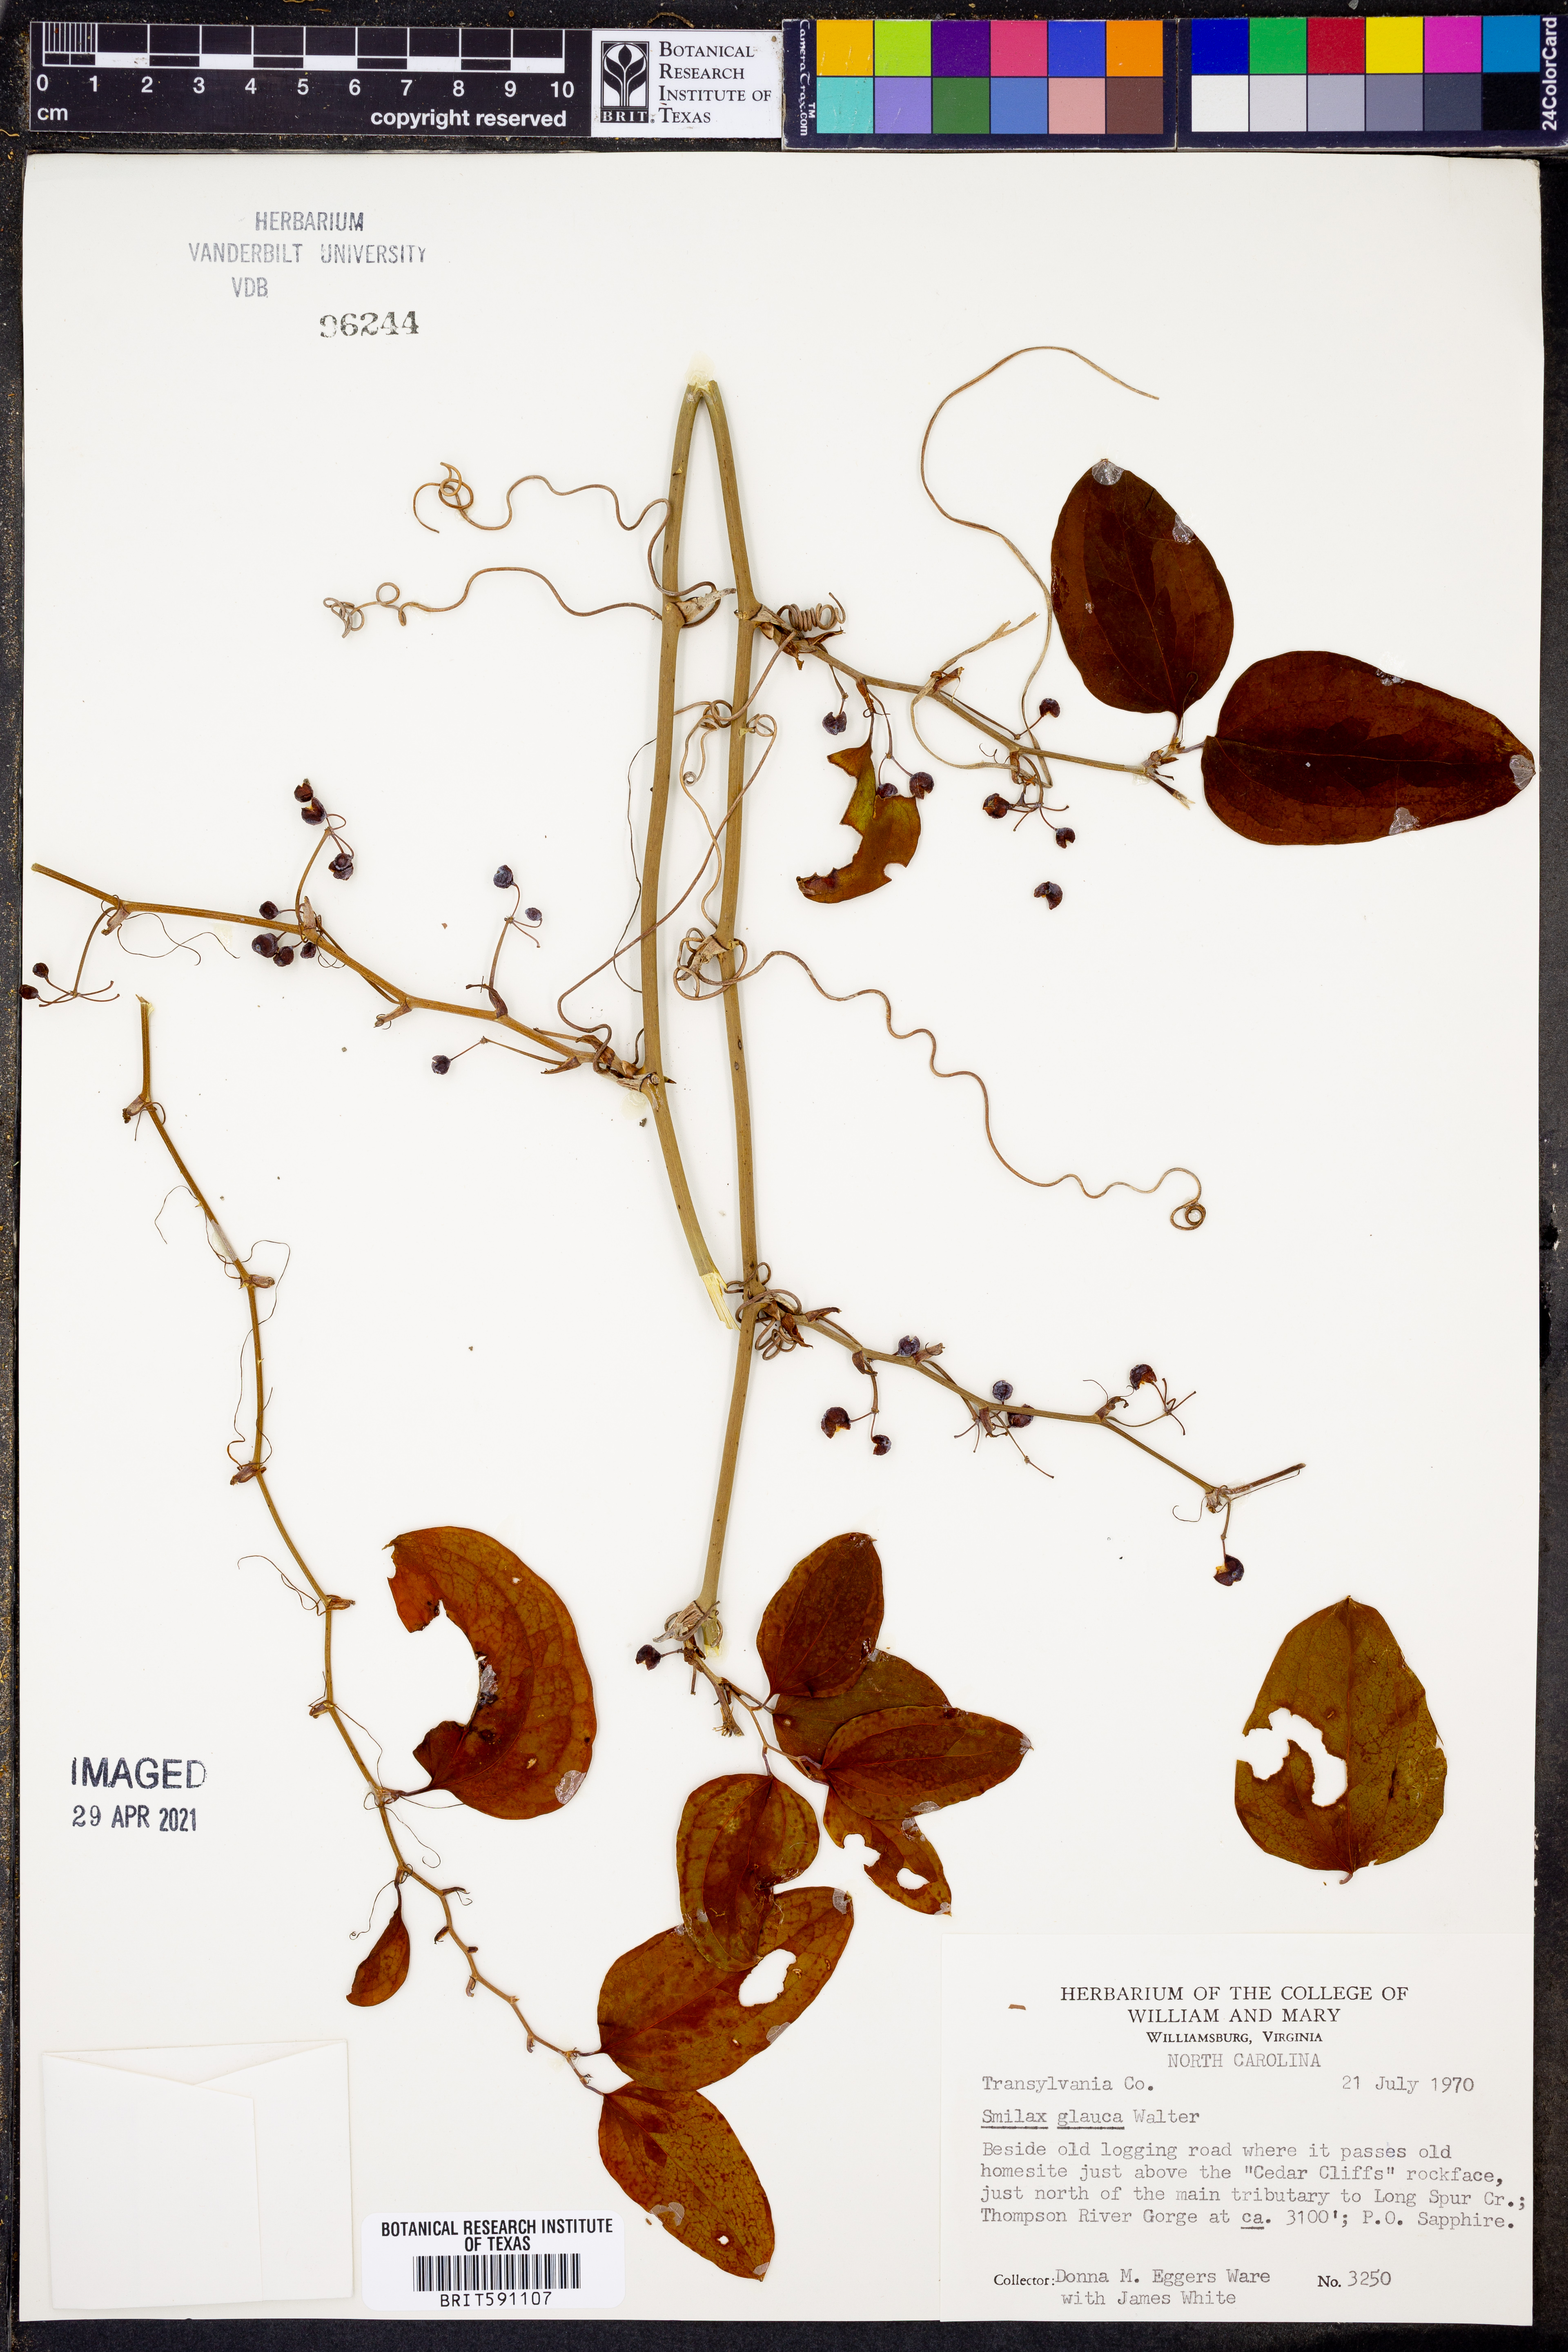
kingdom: Plantae
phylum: Tracheophyta
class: Liliopsida
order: Liliales
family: Smilacaceae
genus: Smilax
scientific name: Smilax glauca
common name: Cat greenbrier
